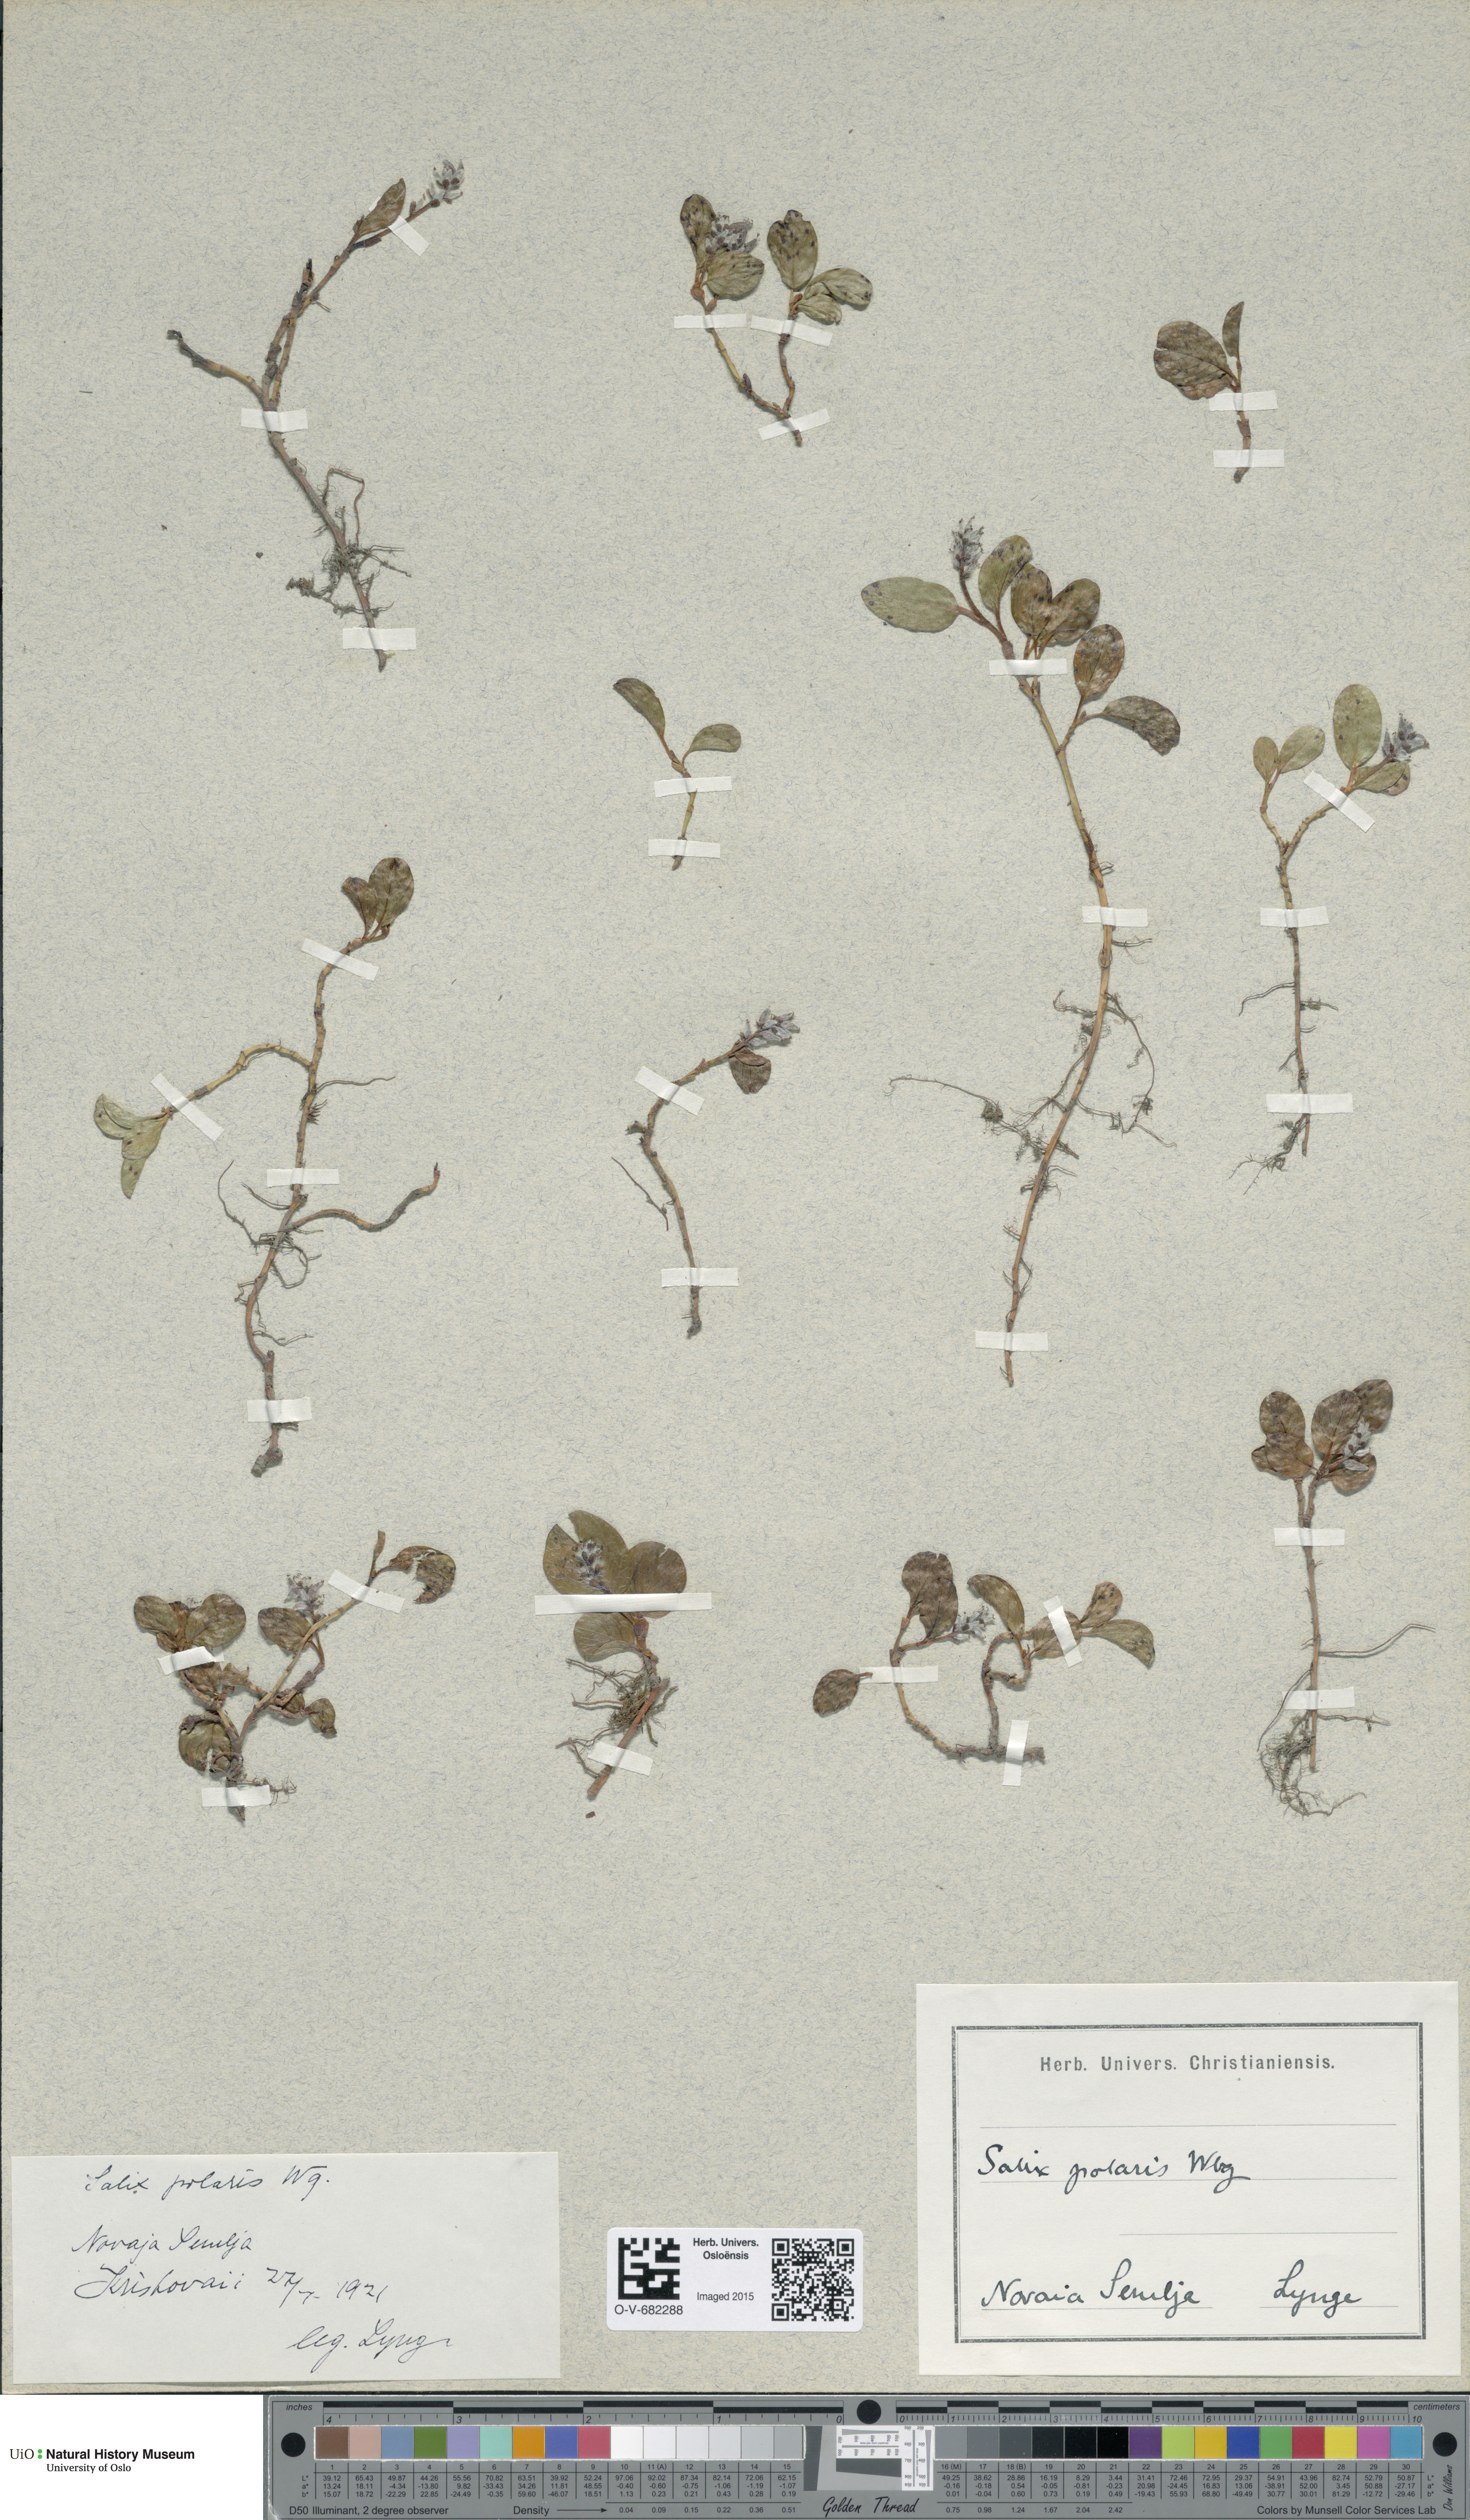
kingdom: Plantae
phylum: Tracheophyta
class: Magnoliopsida
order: Malpighiales
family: Salicaceae
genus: Salix
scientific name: Salix polaris
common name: Polar willow
